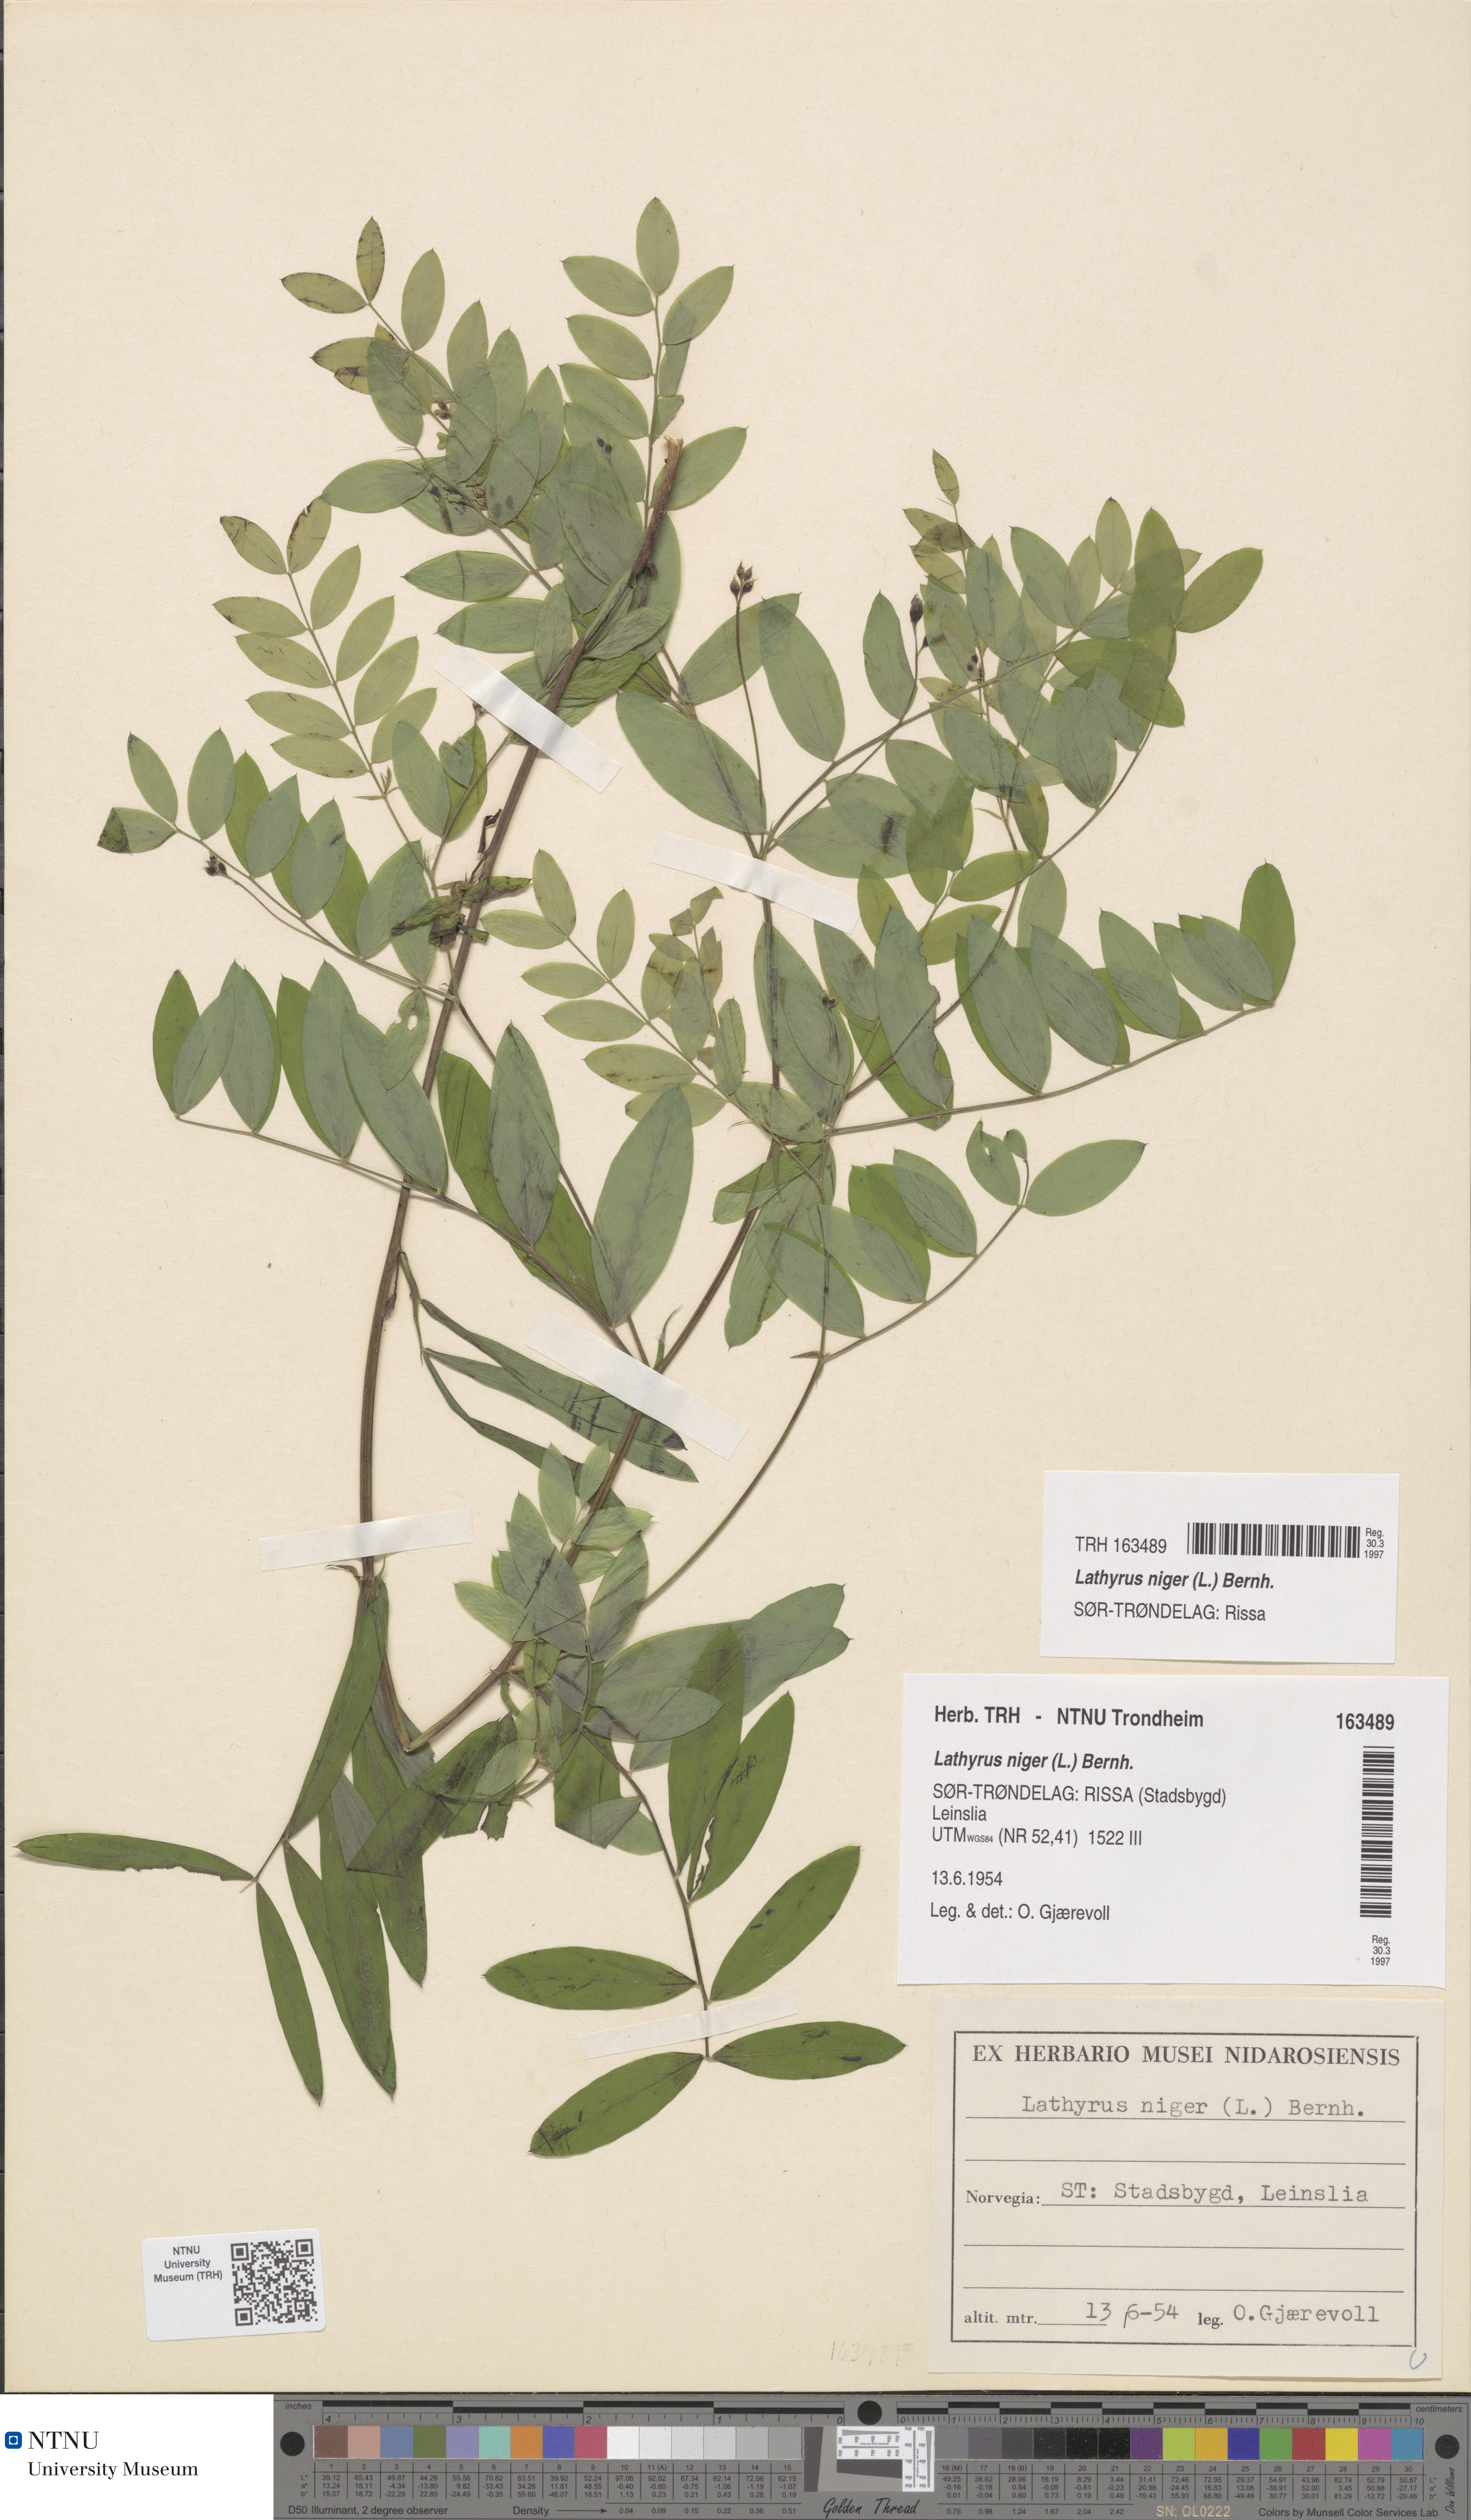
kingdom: Plantae
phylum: Tracheophyta
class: Magnoliopsida
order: Fabales
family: Fabaceae
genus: Lathyrus
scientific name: Lathyrus niger
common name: Black pea
